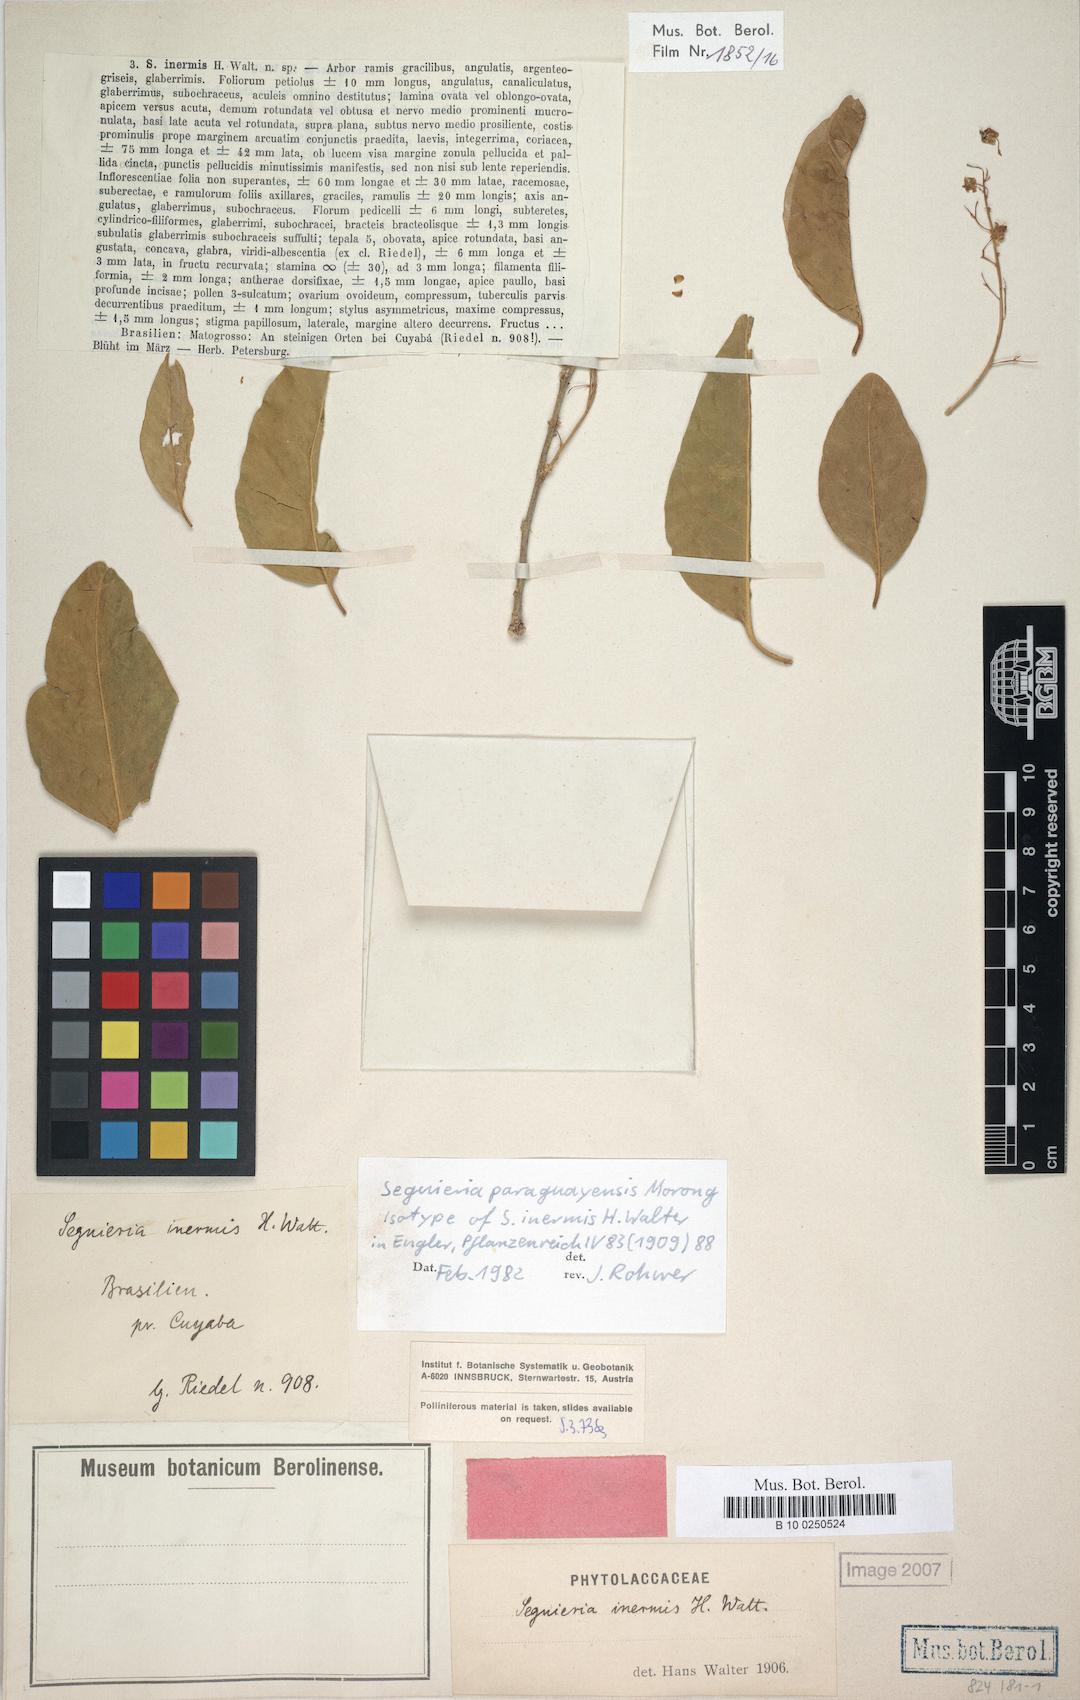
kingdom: Plantae
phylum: Tracheophyta
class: Magnoliopsida
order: Caryophyllales
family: Phytolaccaceae
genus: Seguieria
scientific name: Seguieria paraguayensis
